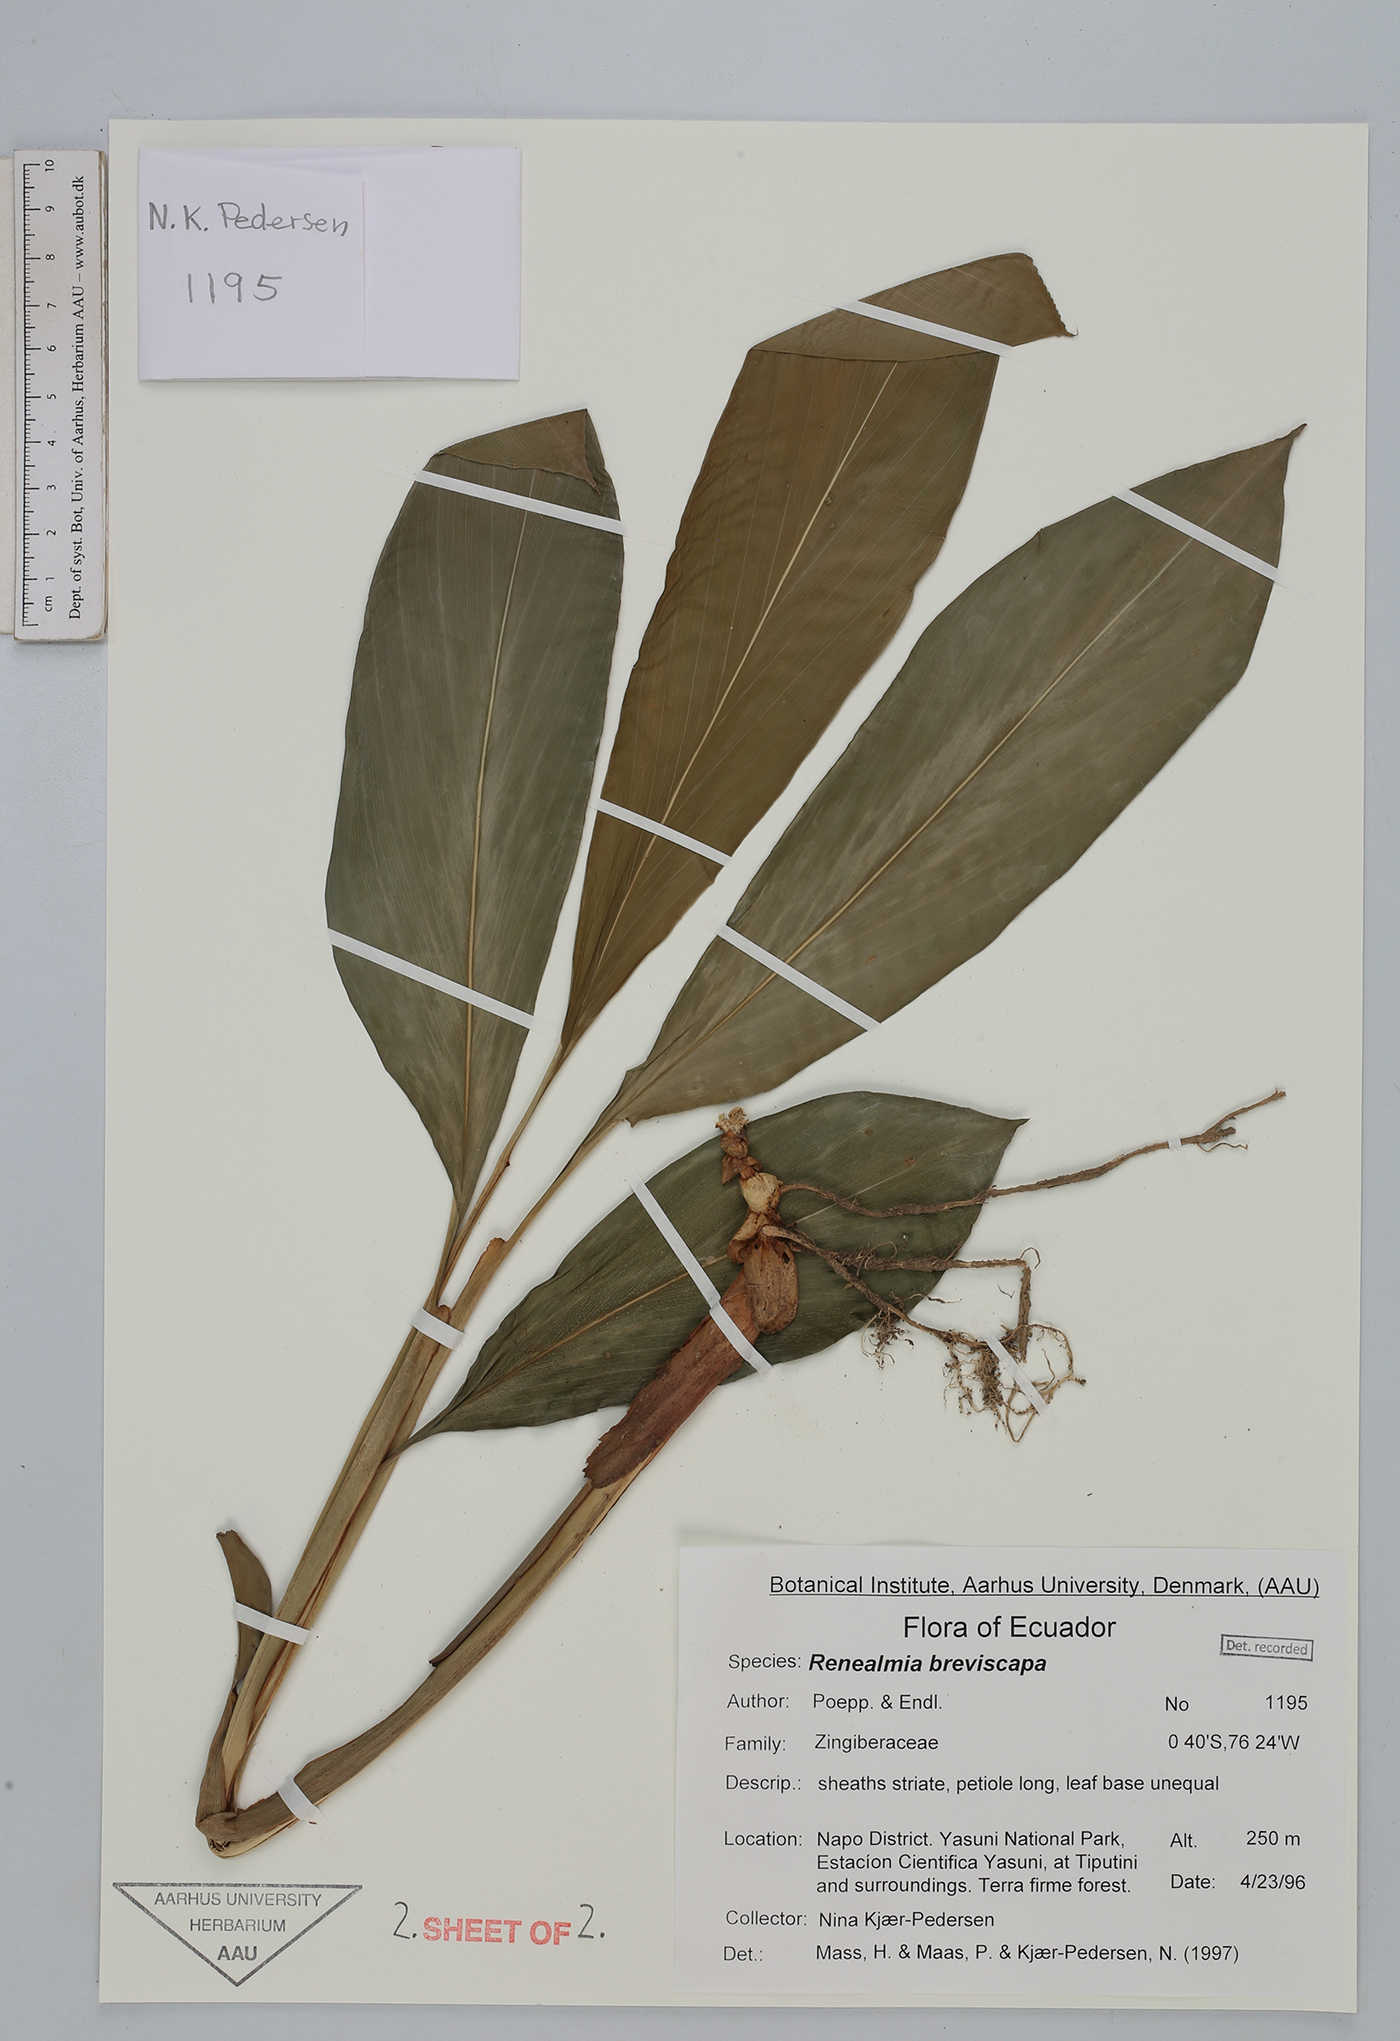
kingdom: Plantae
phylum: Tracheophyta
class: Liliopsida
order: Zingiberales
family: Zingiberaceae
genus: Renealmia
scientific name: Renealmia breviscapa
